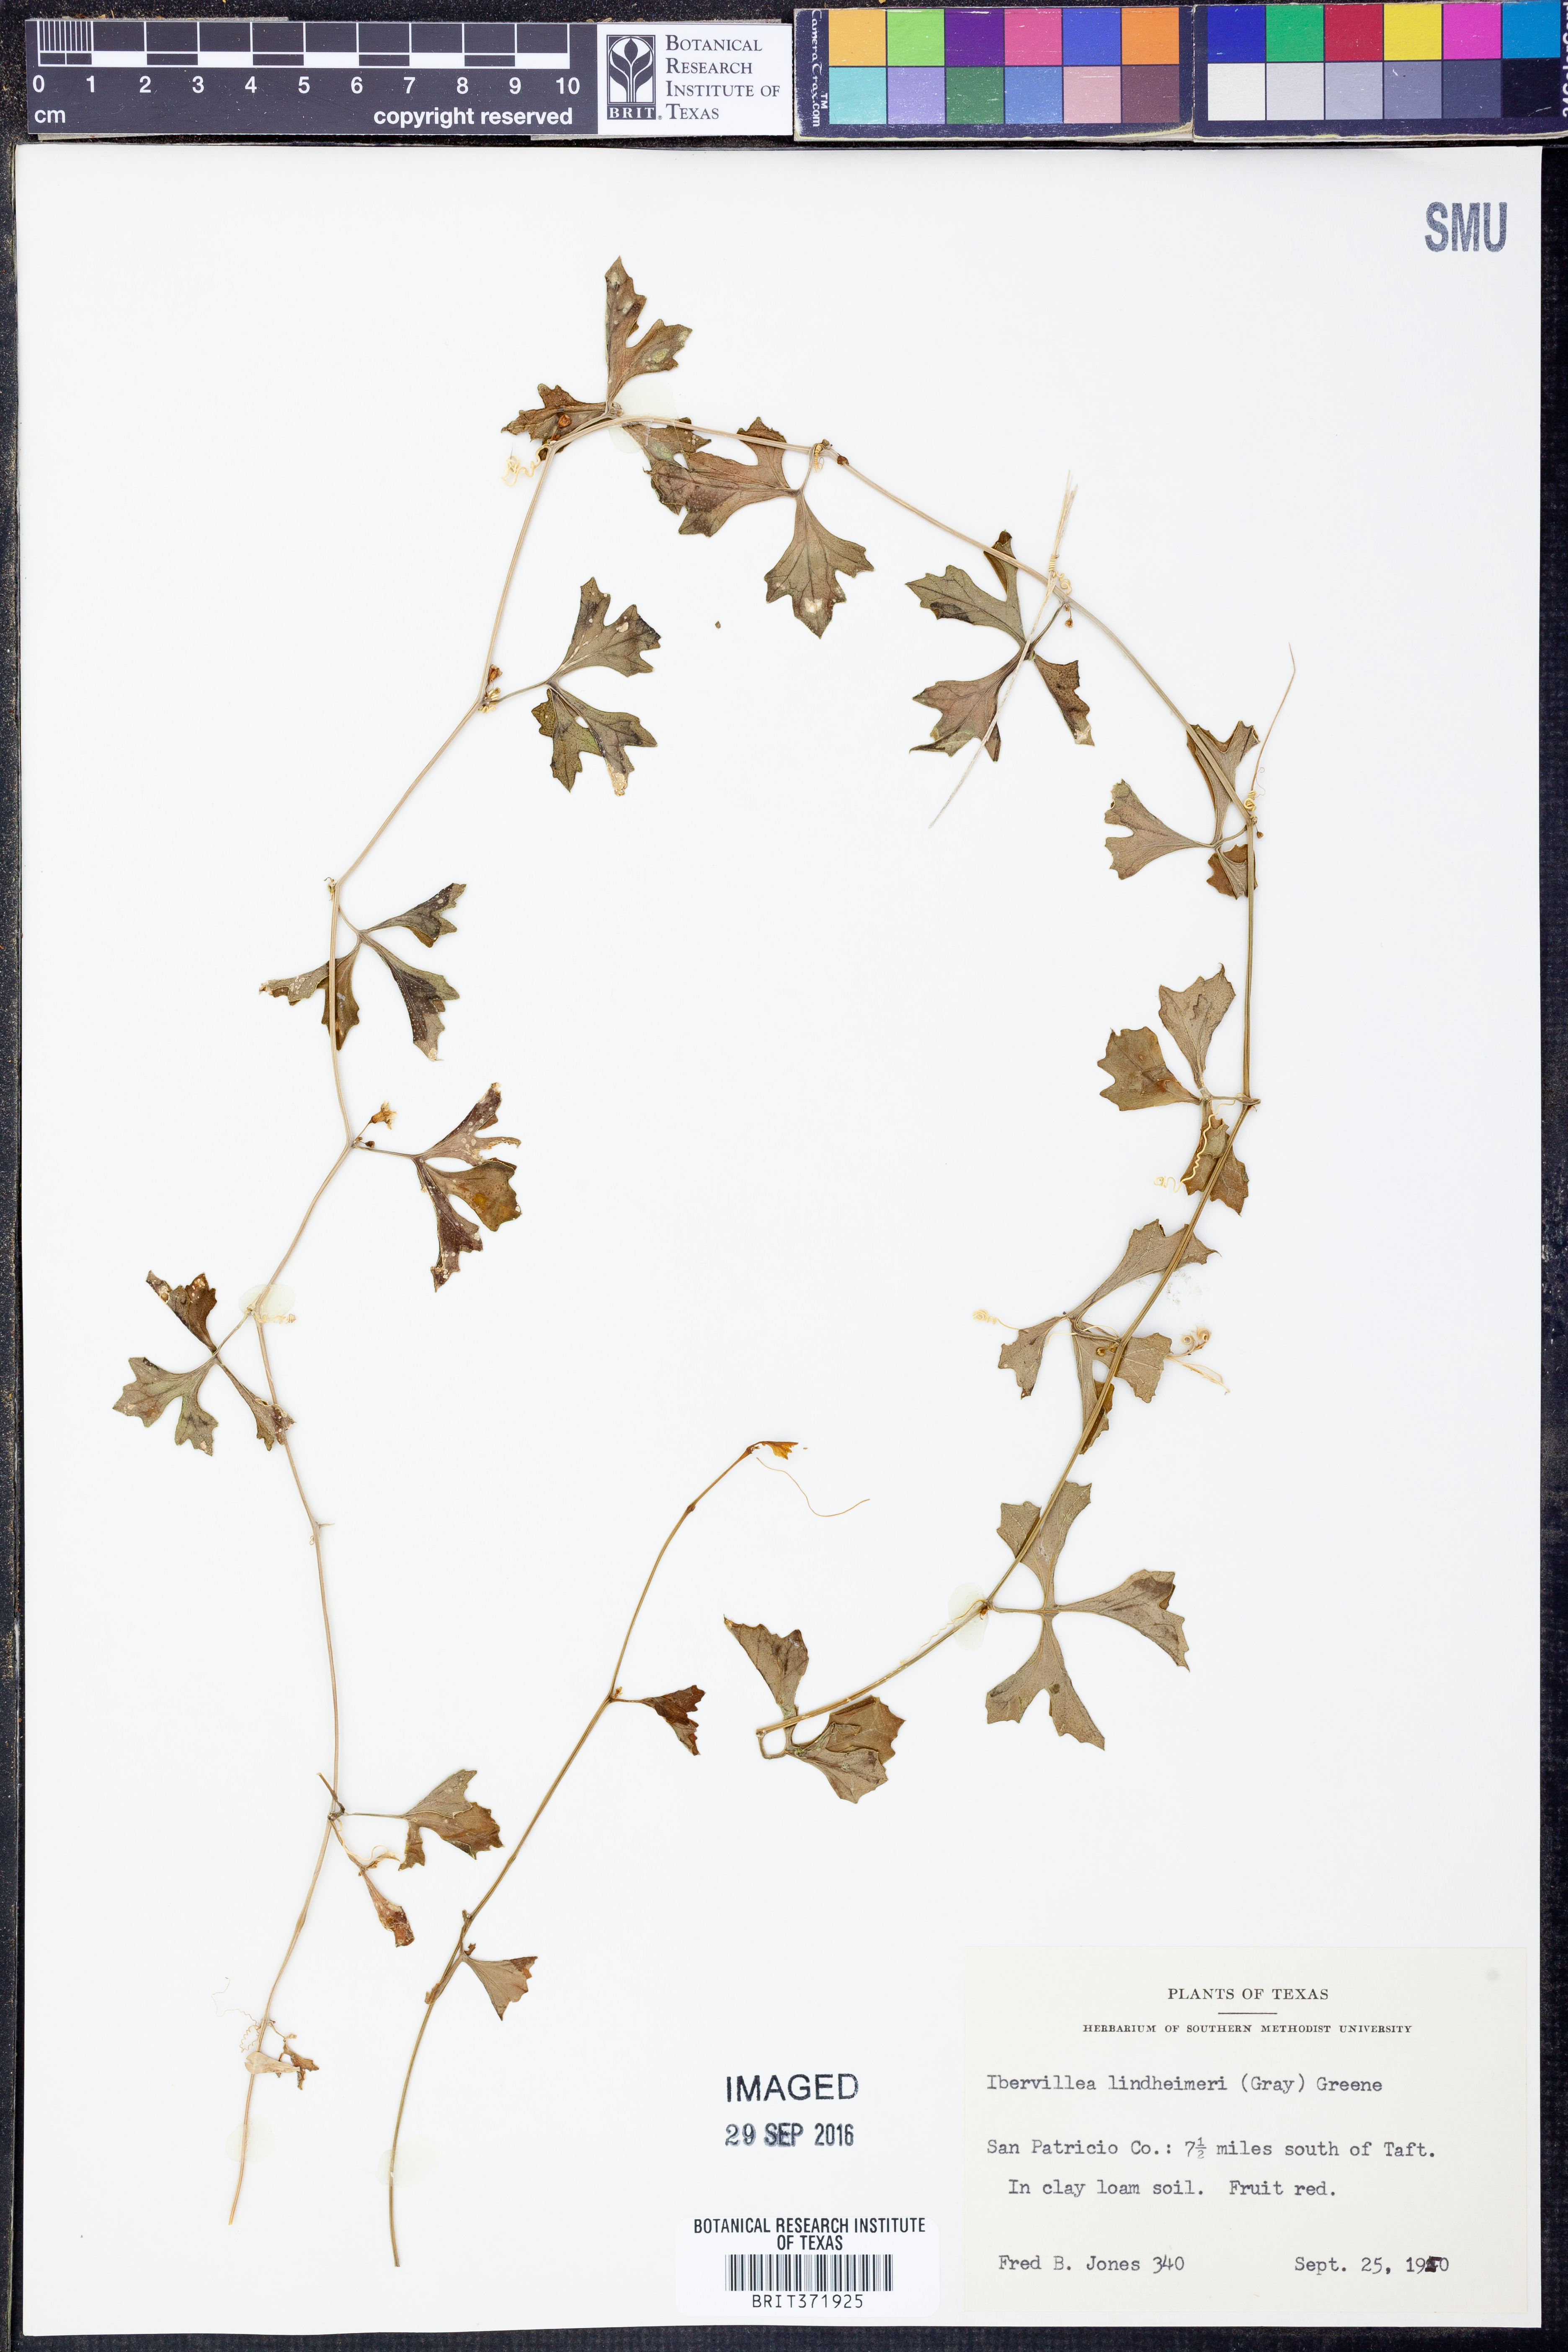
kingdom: Plantae
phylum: Tracheophyta
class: Magnoliopsida
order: Cucurbitales
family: Cucurbitaceae
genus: Ibervillea
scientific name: Ibervillea lindheimeri
